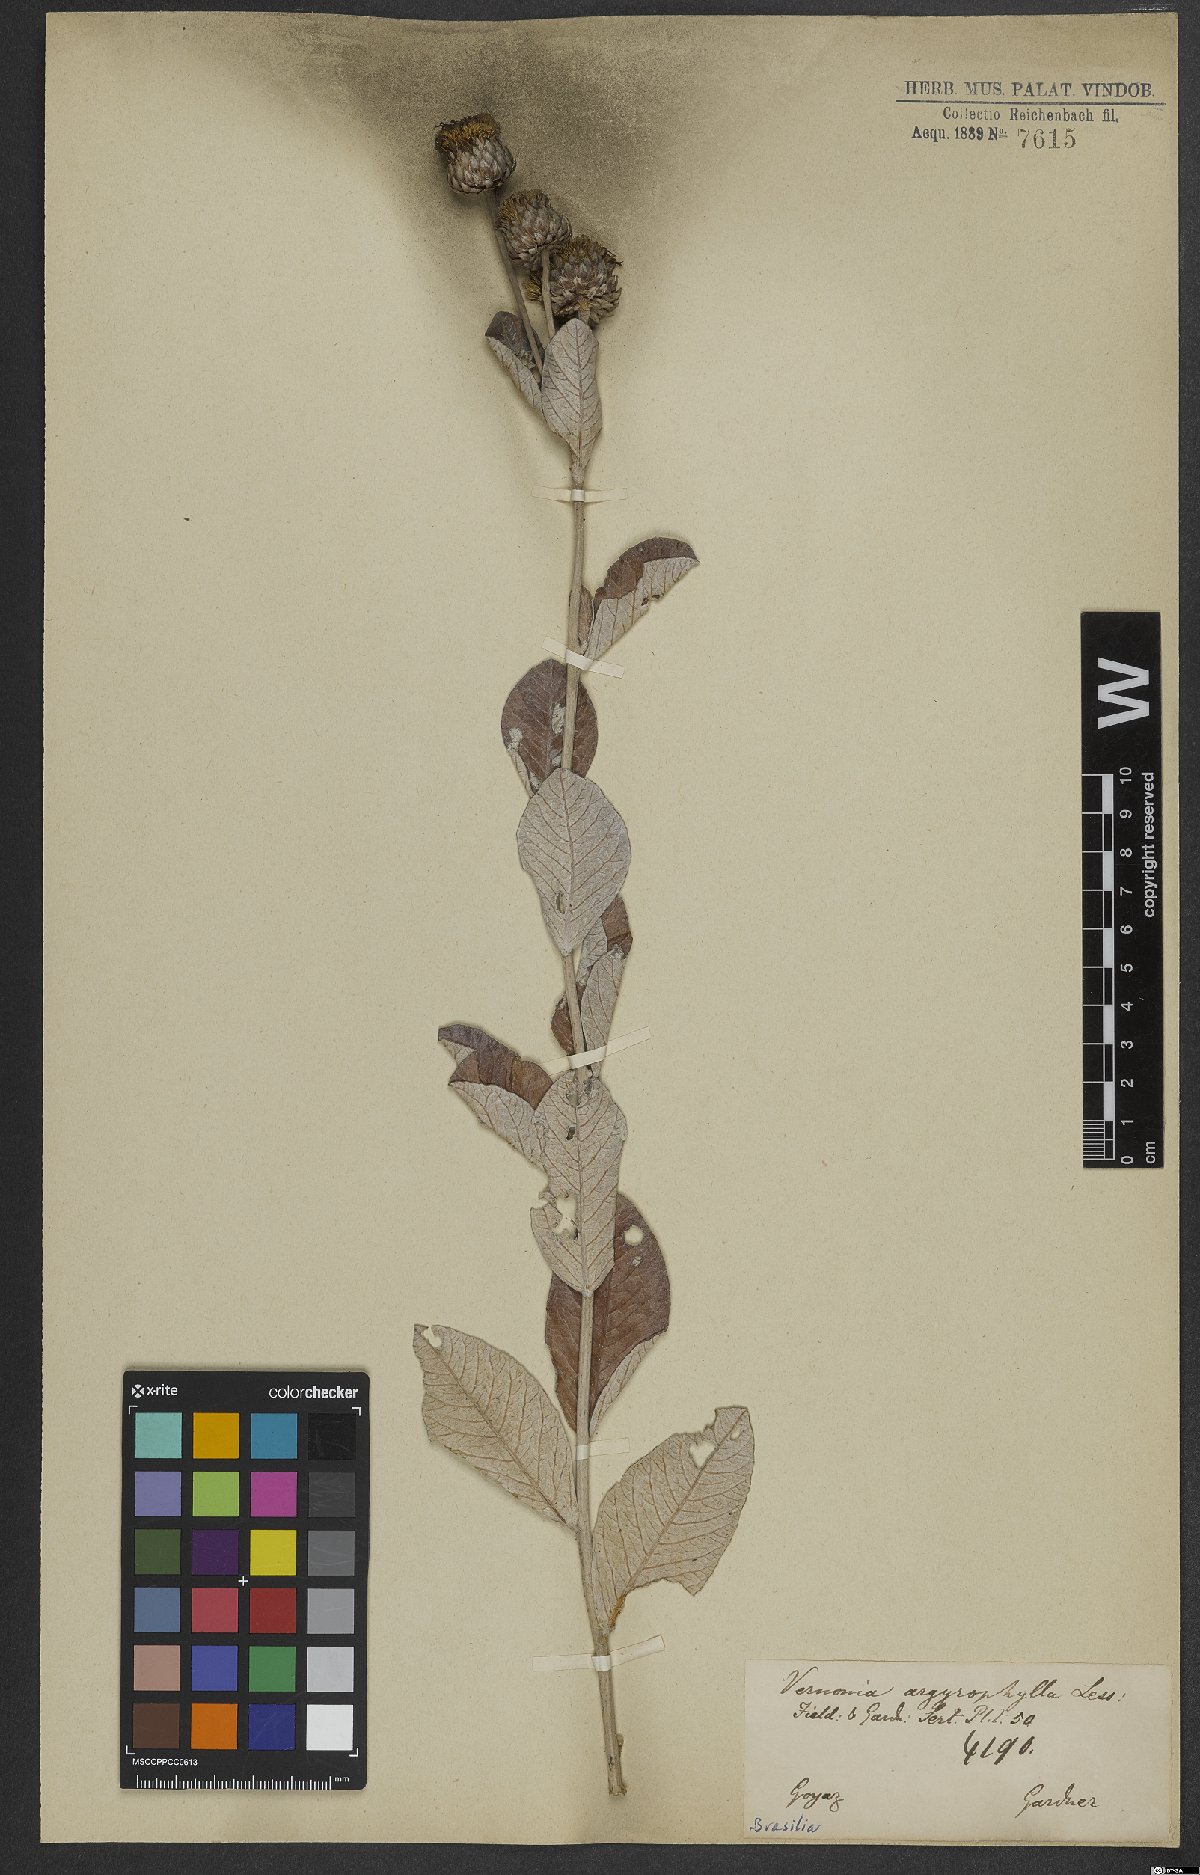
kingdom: Plantae
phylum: Tracheophyta
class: Magnoliopsida
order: Asterales
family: Asteraceae
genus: Lessingianthus
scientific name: Lessingianthus argyrophyllus
